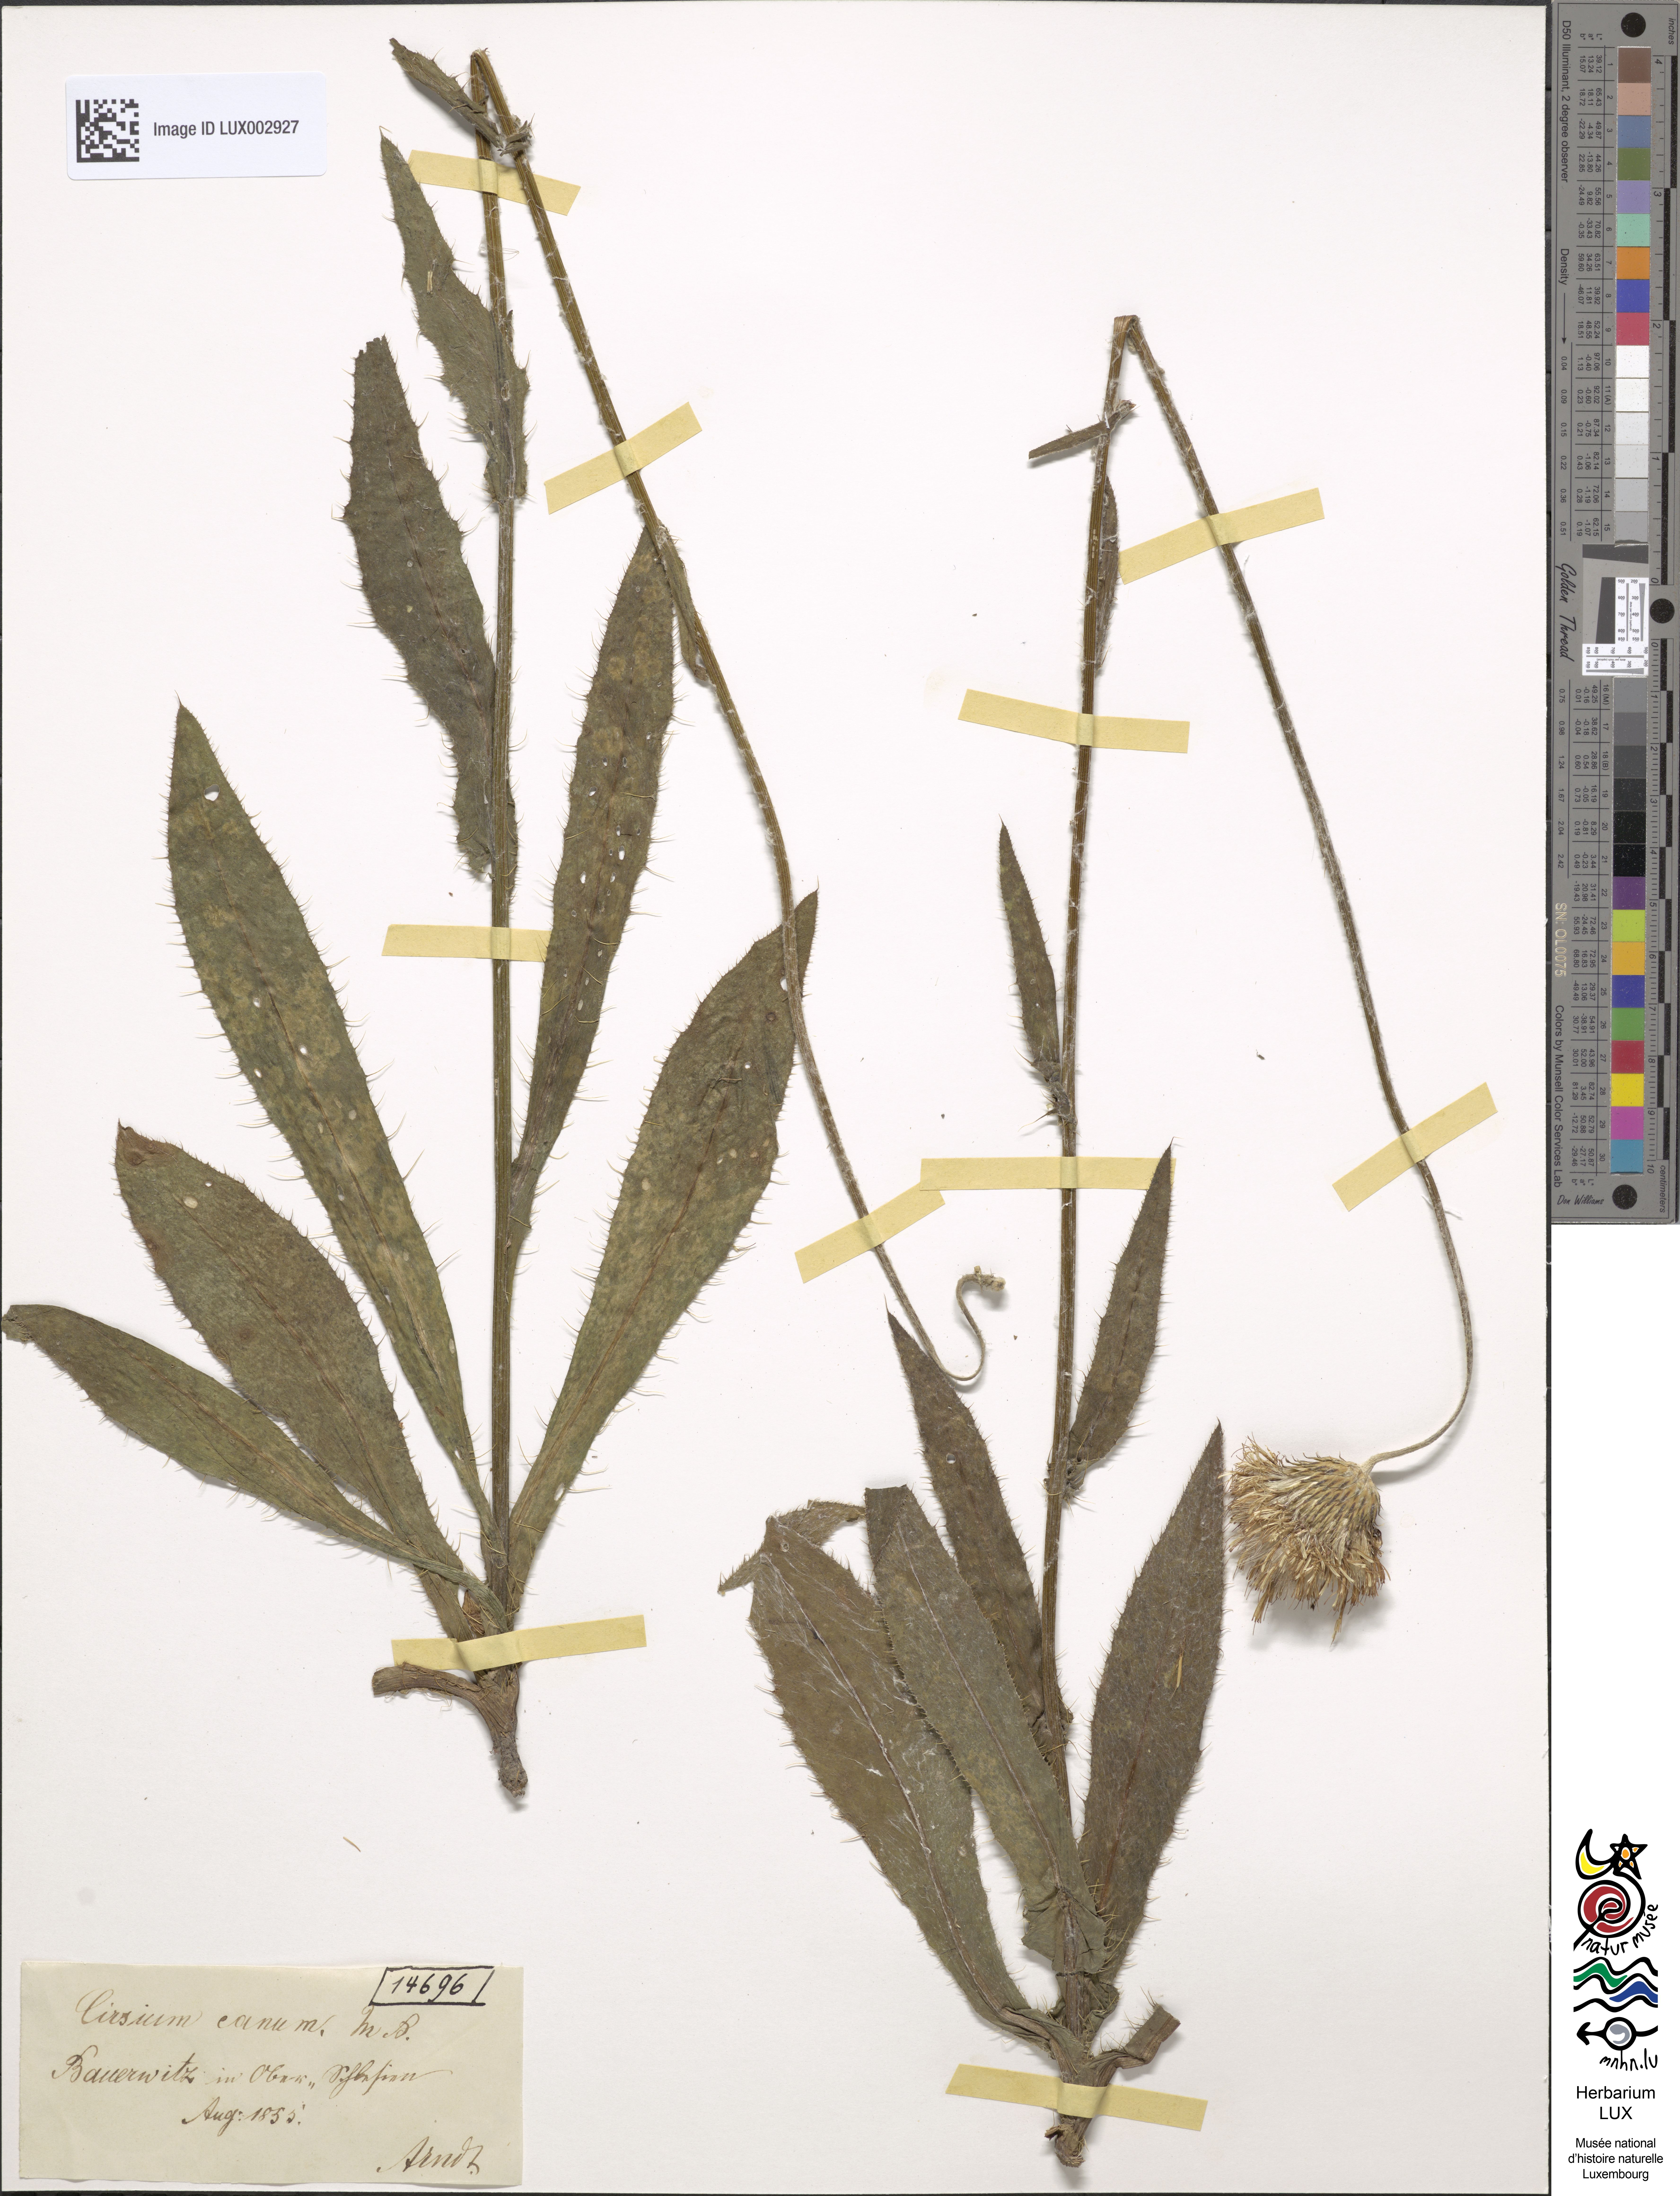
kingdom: Plantae
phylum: Tracheophyta
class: Magnoliopsida
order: Asterales
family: Asteraceae
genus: Cirsium
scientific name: Cirsium canum
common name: Queen anne's thistle
